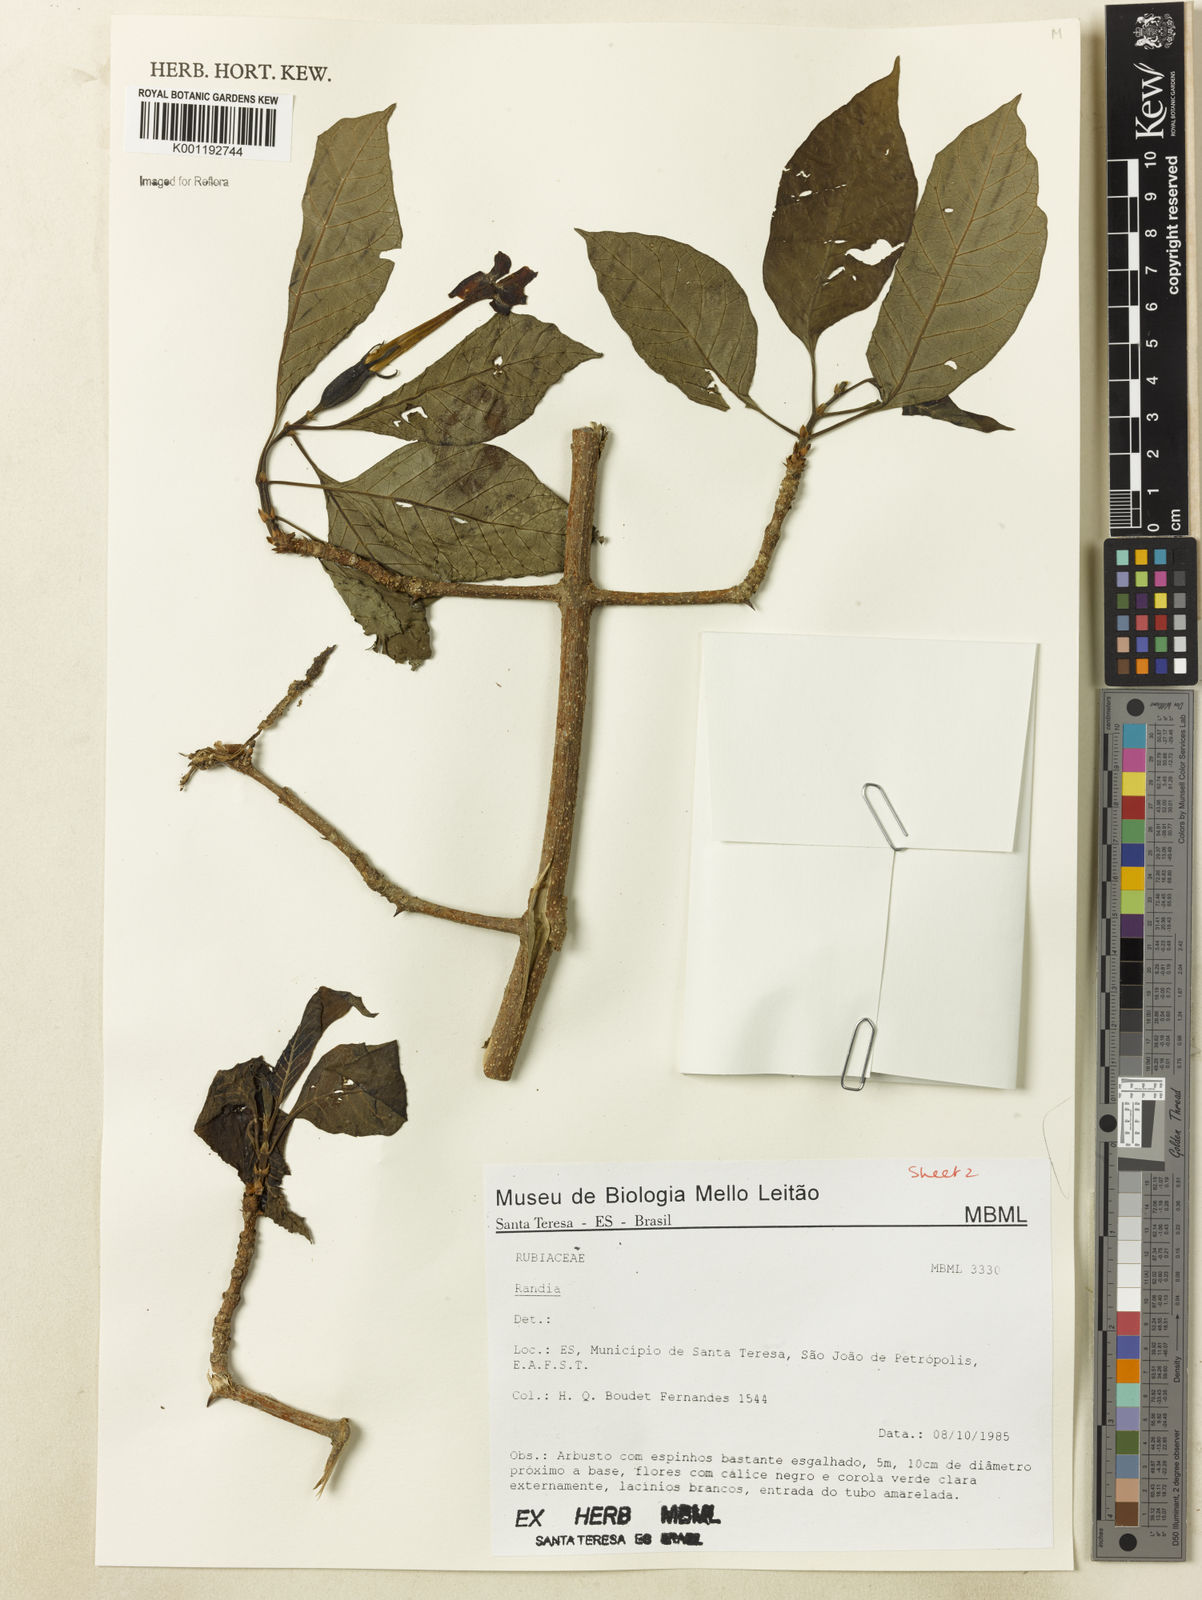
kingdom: Plantae
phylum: Tracheophyta
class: Magnoliopsida
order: Gentianales
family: Rubiaceae
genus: Randia
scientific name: Randia
